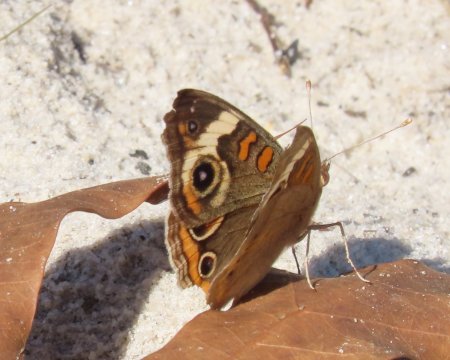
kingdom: Animalia
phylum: Arthropoda
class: Insecta
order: Lepidoptera
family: Nymphalidae
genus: Junonia
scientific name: Junonia coenia
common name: Common Buckeye
